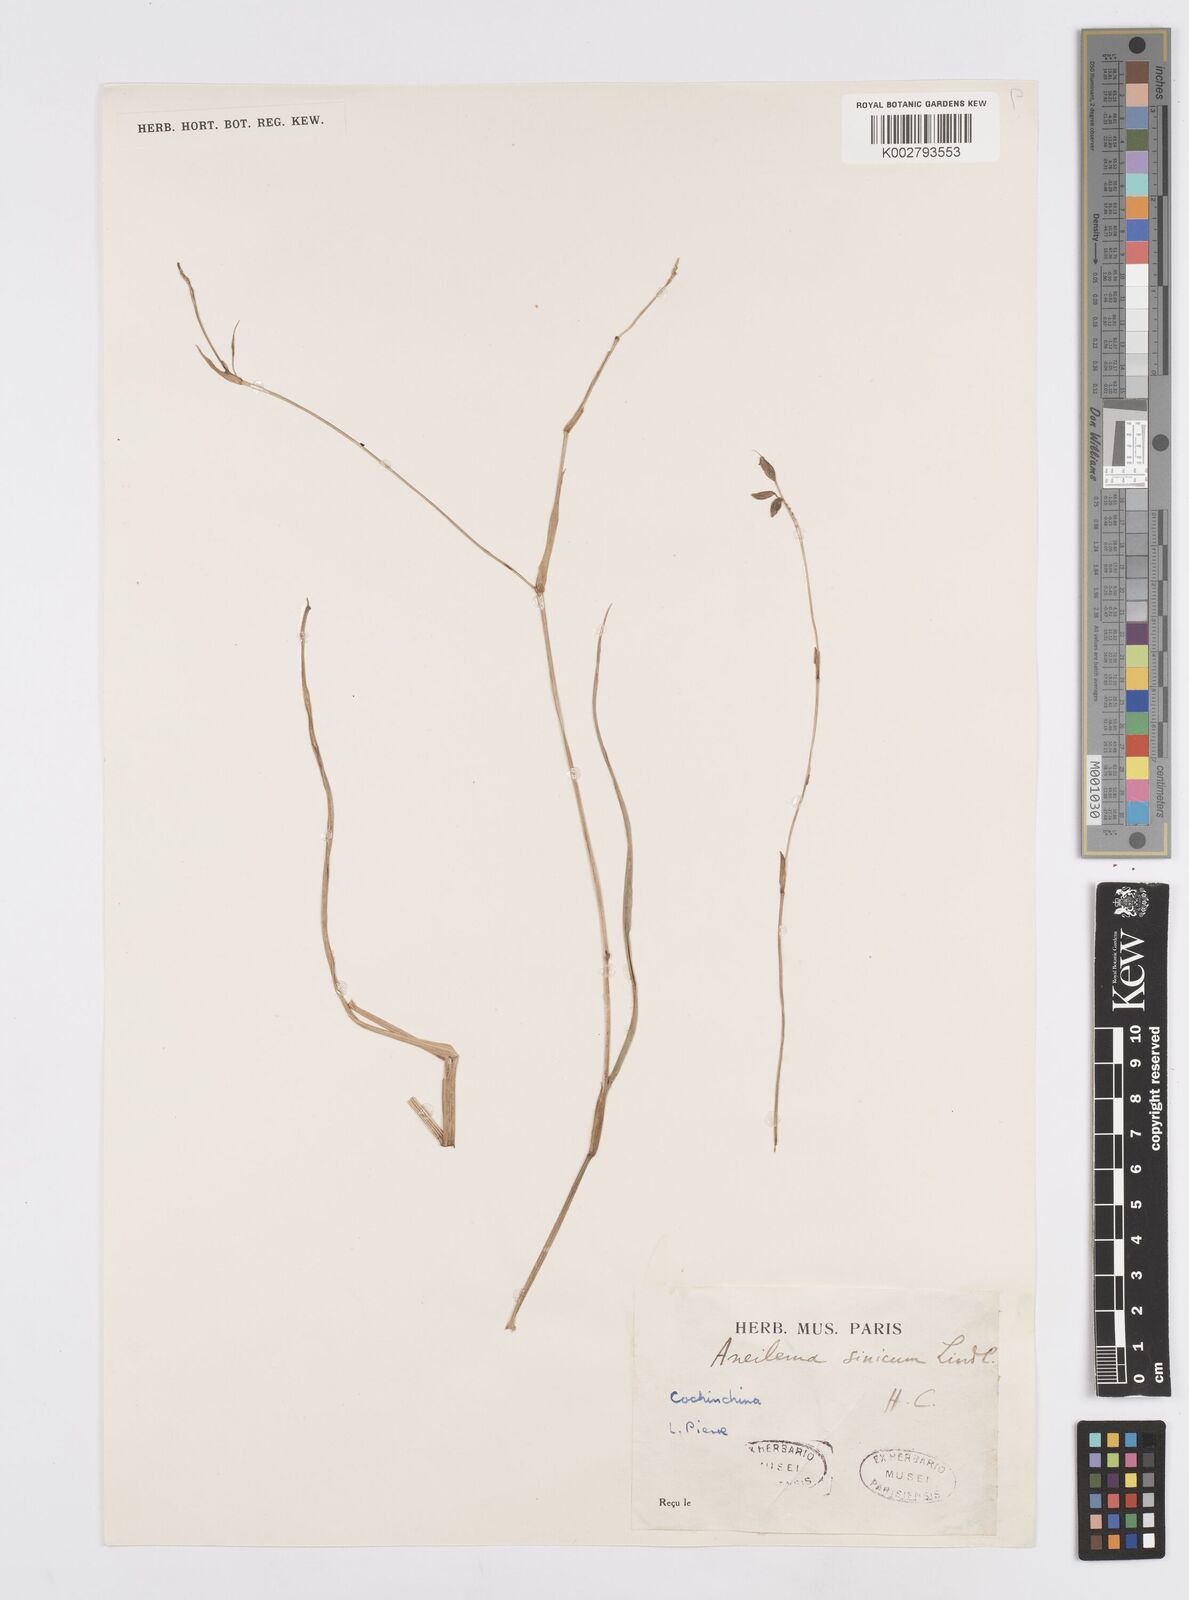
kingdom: Plantae
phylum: Tracheophyta
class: Liliopsida
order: Commelinales
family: Commelinaceae
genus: Murdannia
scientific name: Murdannia simplex
